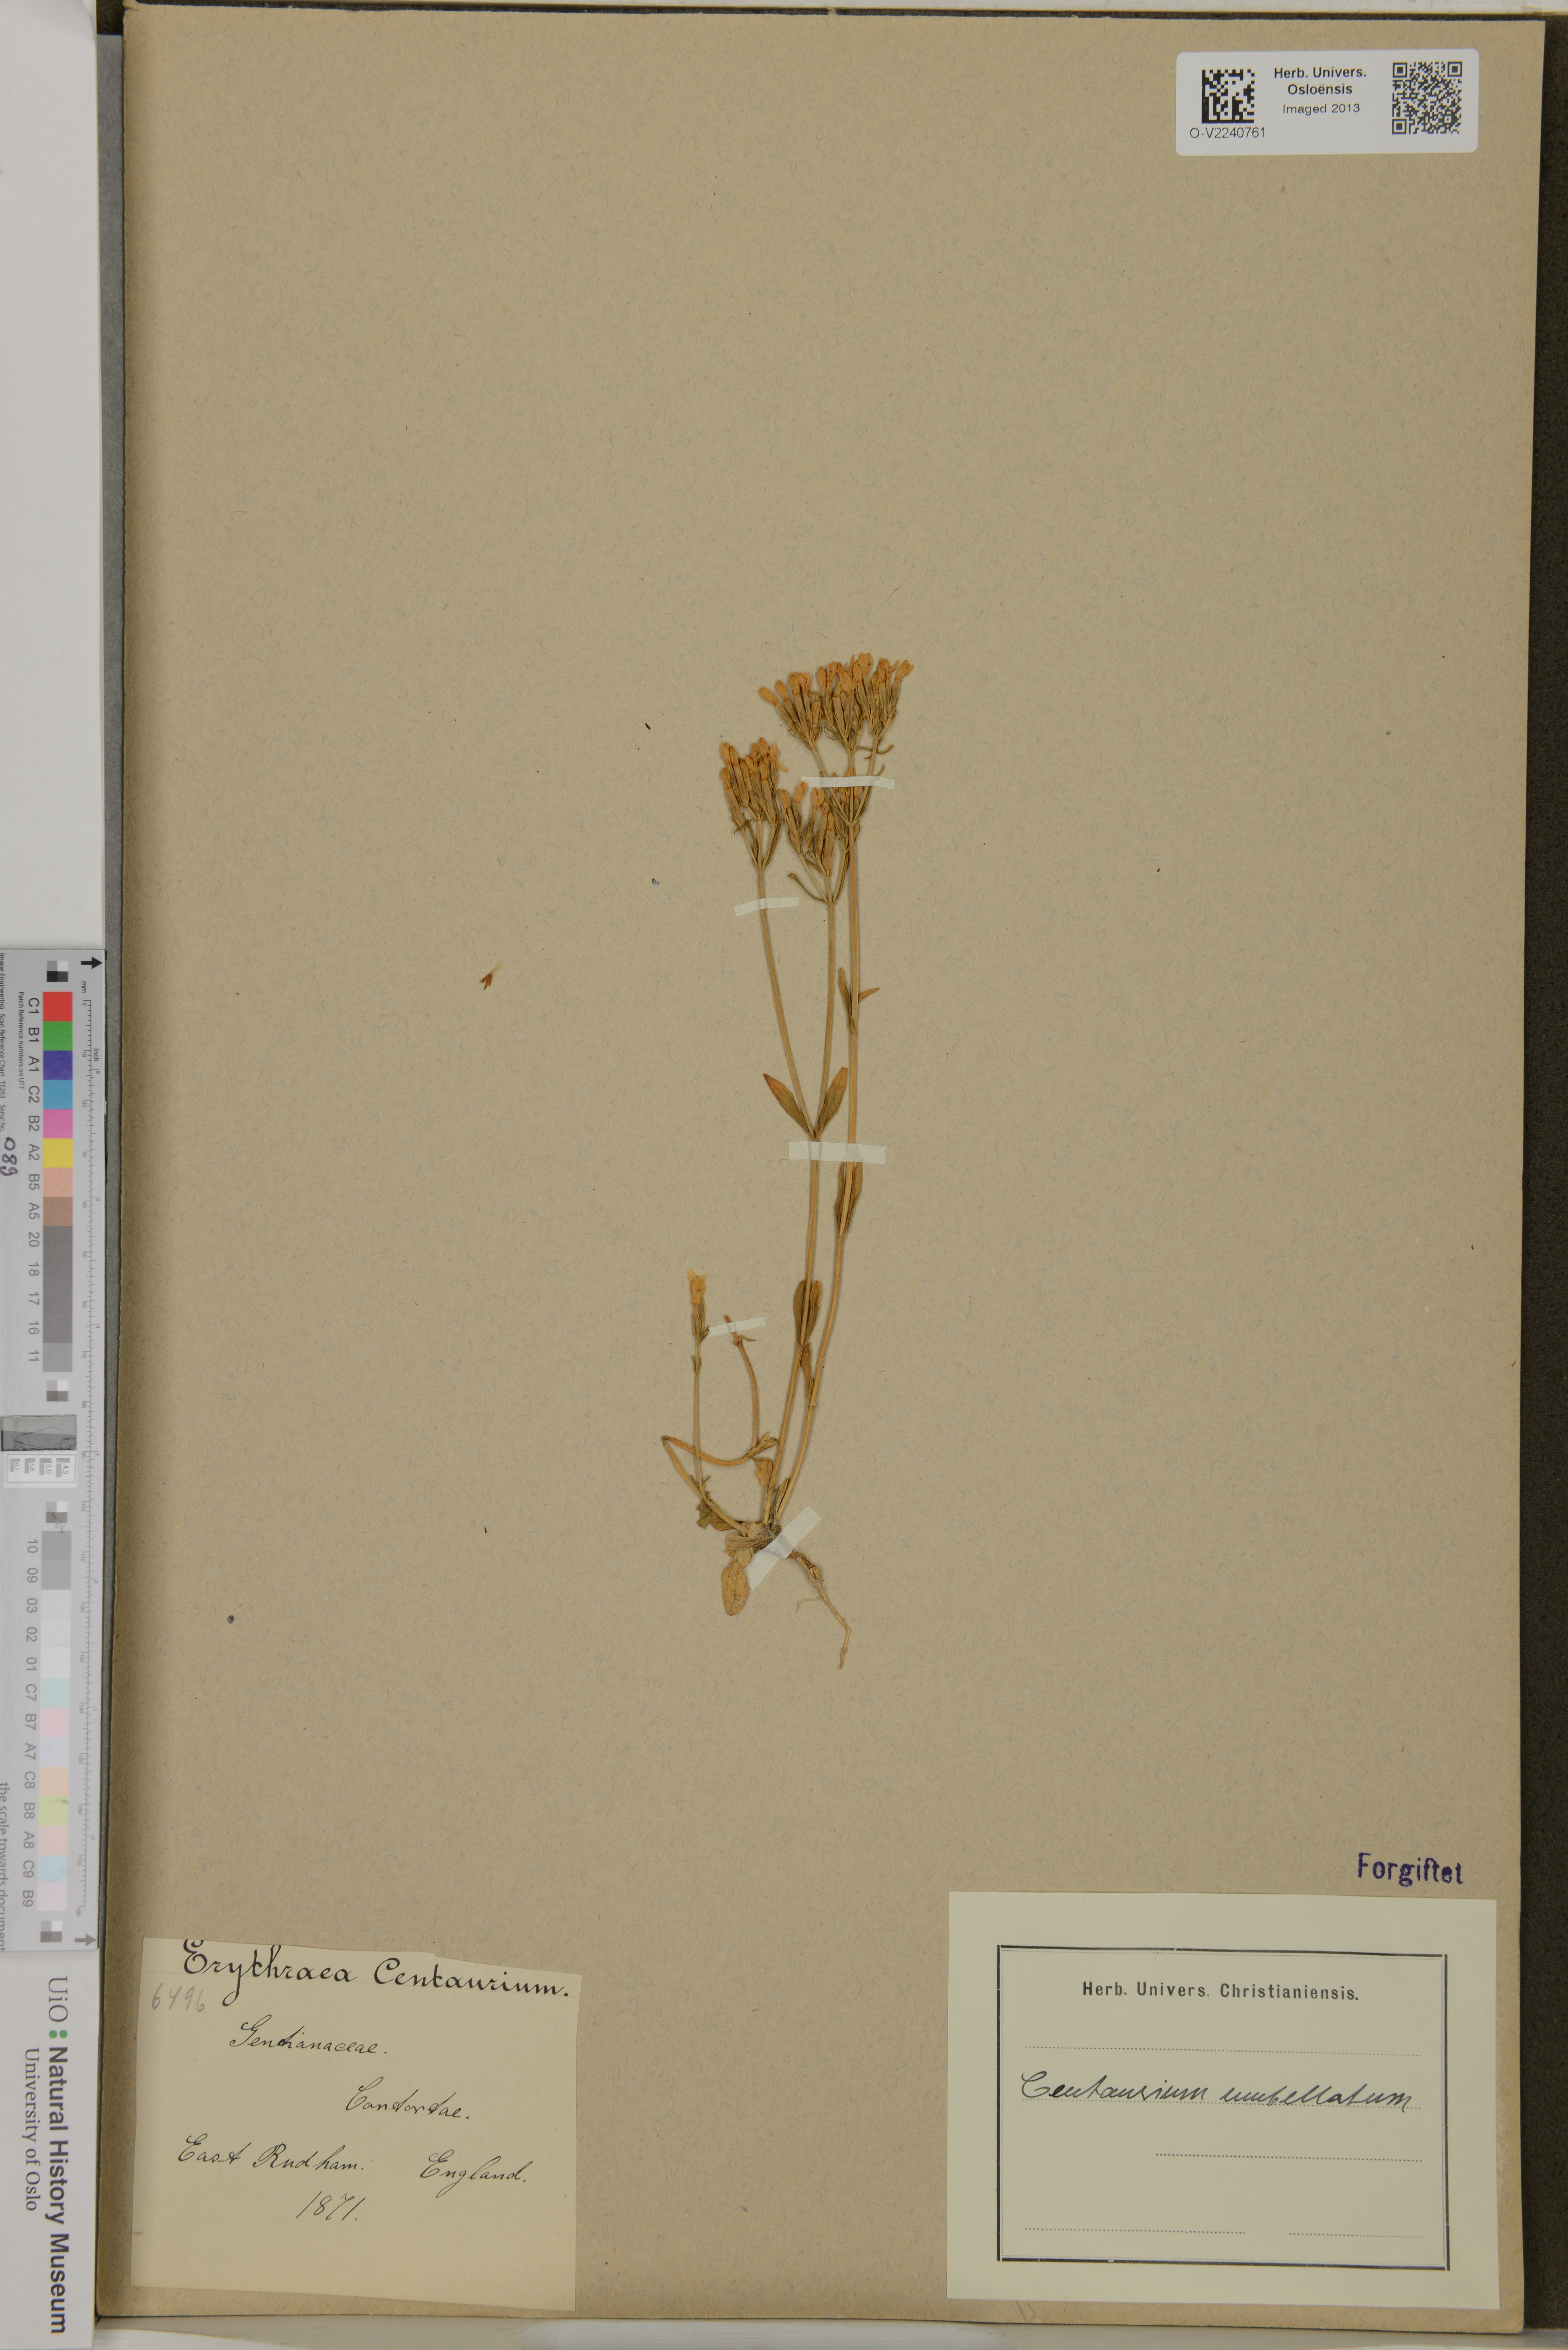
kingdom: Plantae
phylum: Tracheophyta
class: Magnoliopsida
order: Gentianales
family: Gentianaceae
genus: Centaurium
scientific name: Centaurium erythraea
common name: Common centaury
